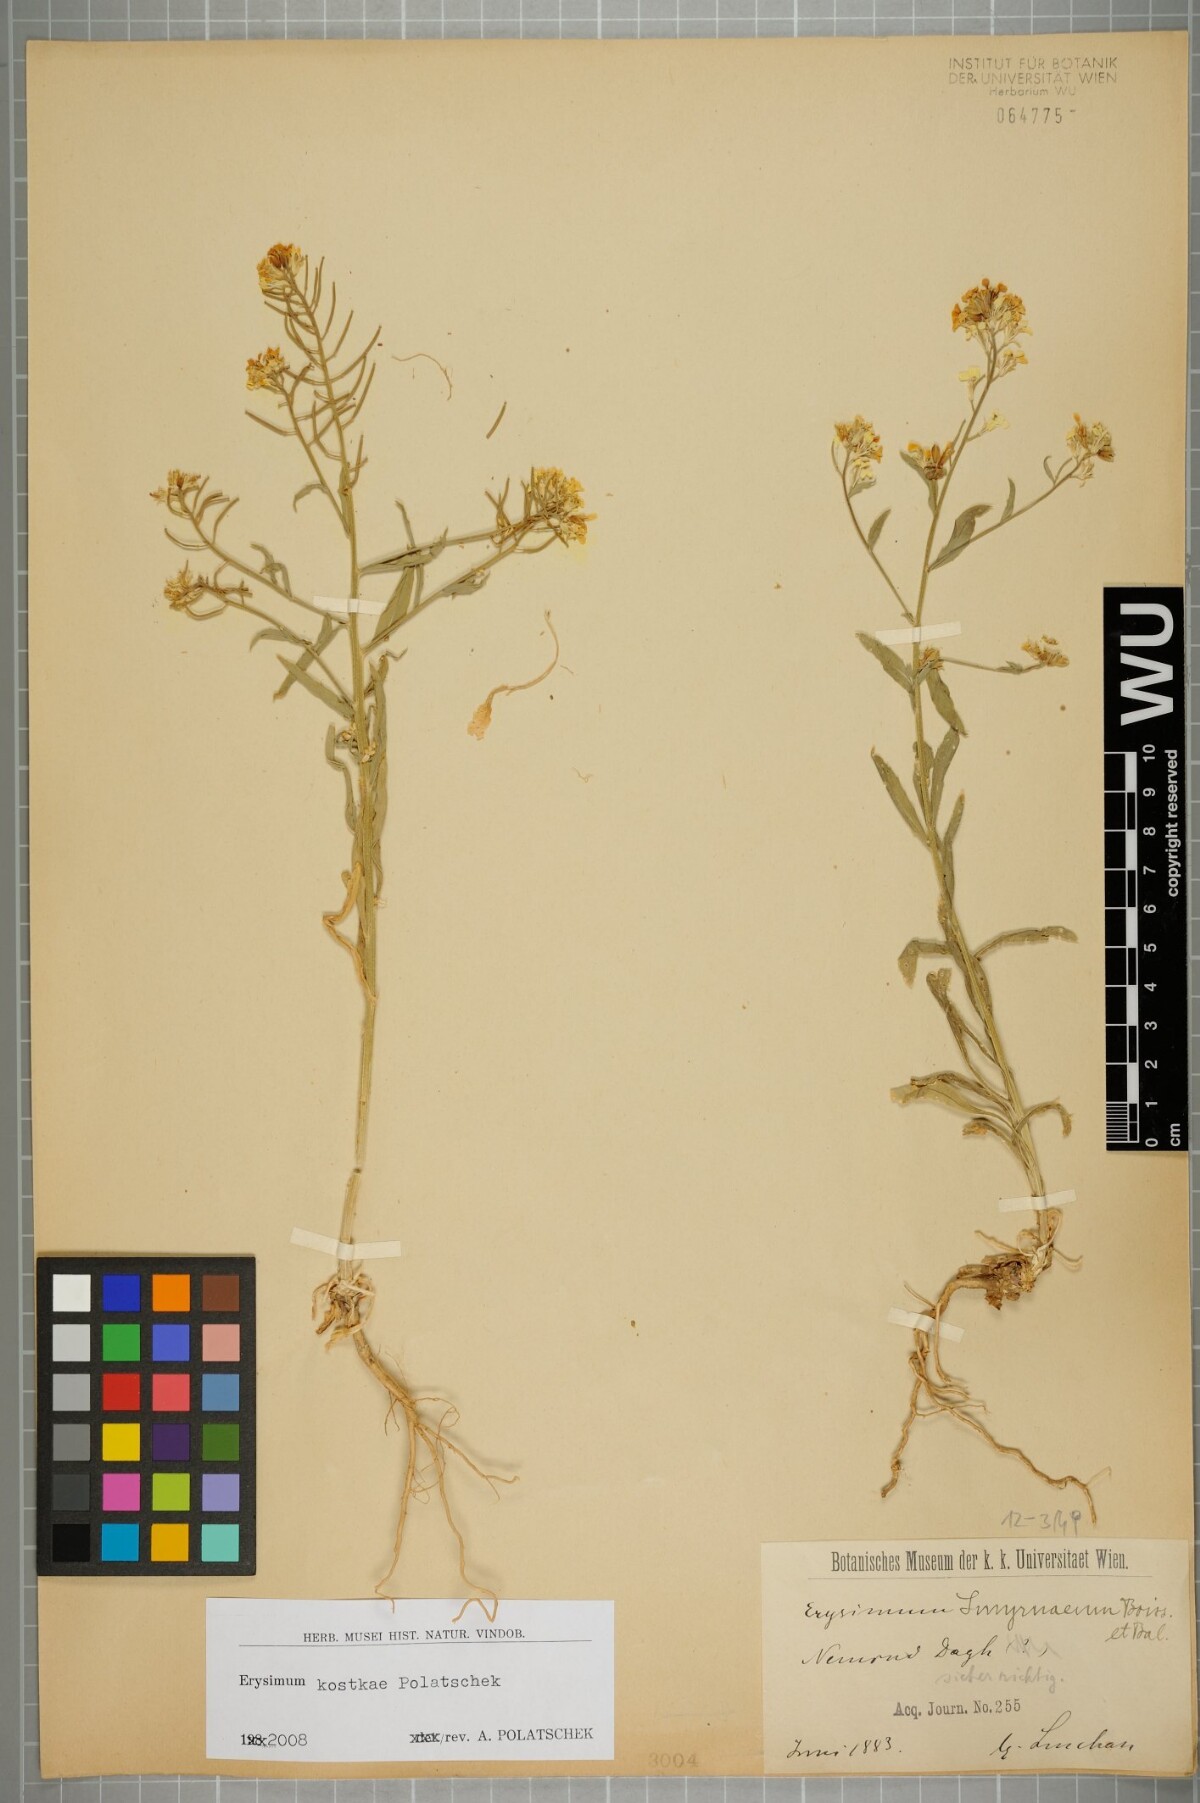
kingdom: Plantae
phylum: Tracheophyta
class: Magnoliopsida
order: Brassicales
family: Brassicaceae
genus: Erysimum
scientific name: Erysimum kostkae
